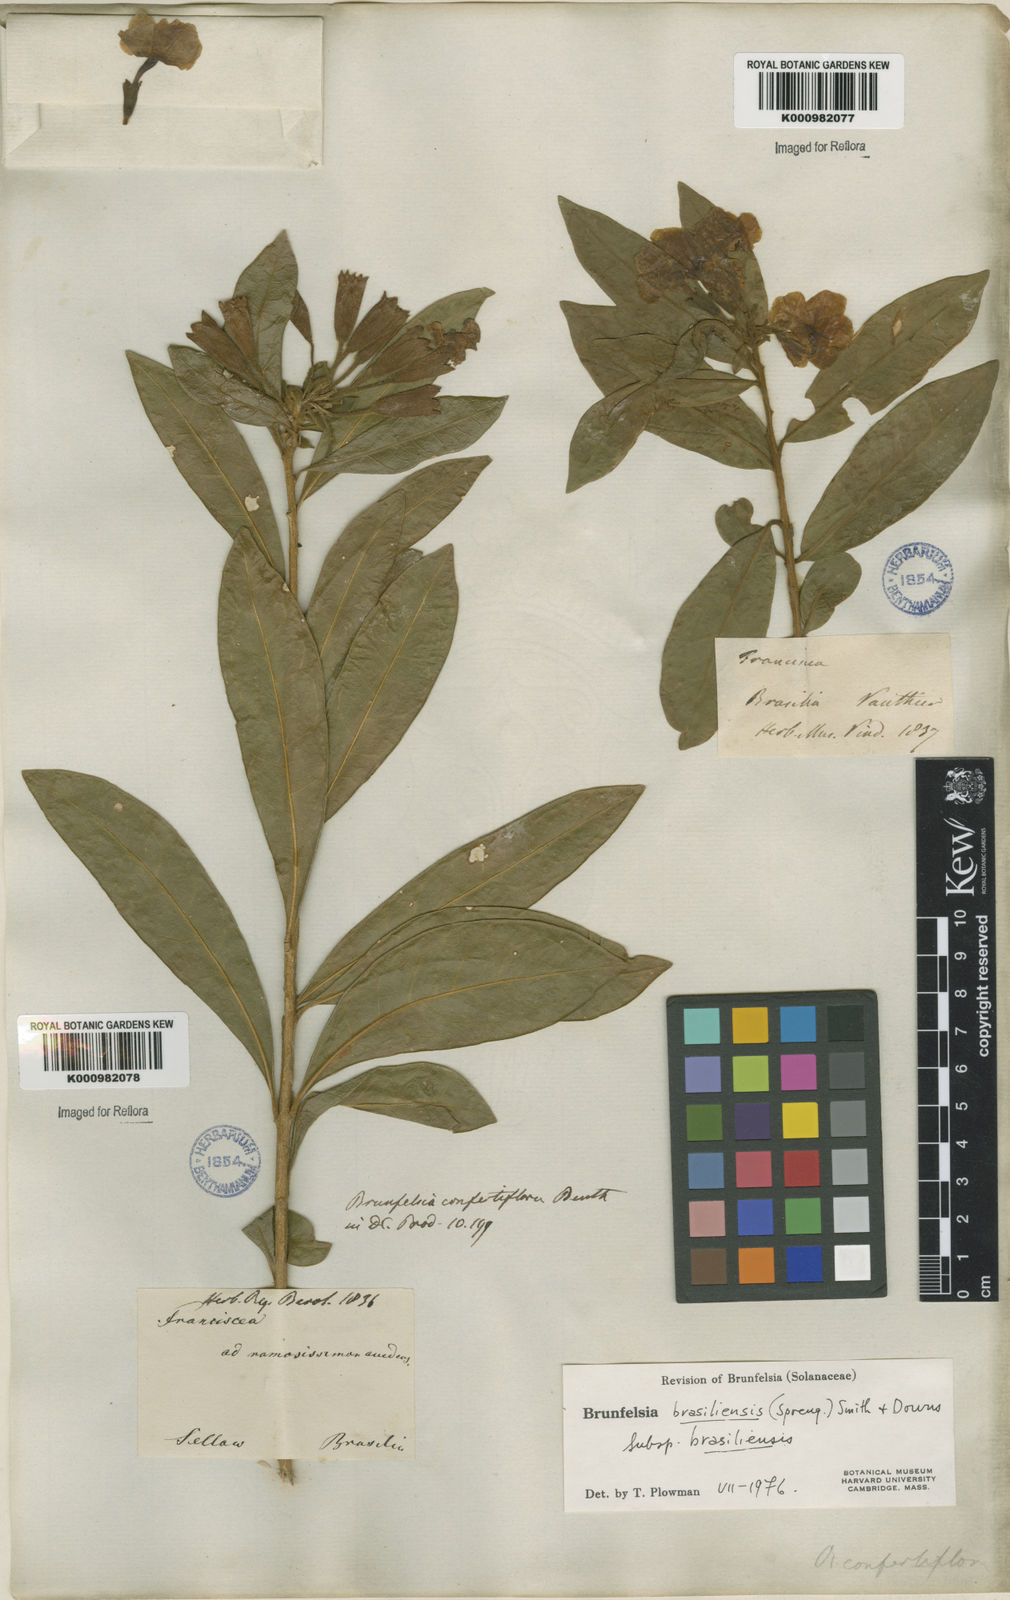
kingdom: Plantae
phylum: Tracheophyta
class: Magnoliopsida
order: Solanales
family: Solanaceae
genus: Brunfelsia
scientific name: Brunfelsia brasiliensis
